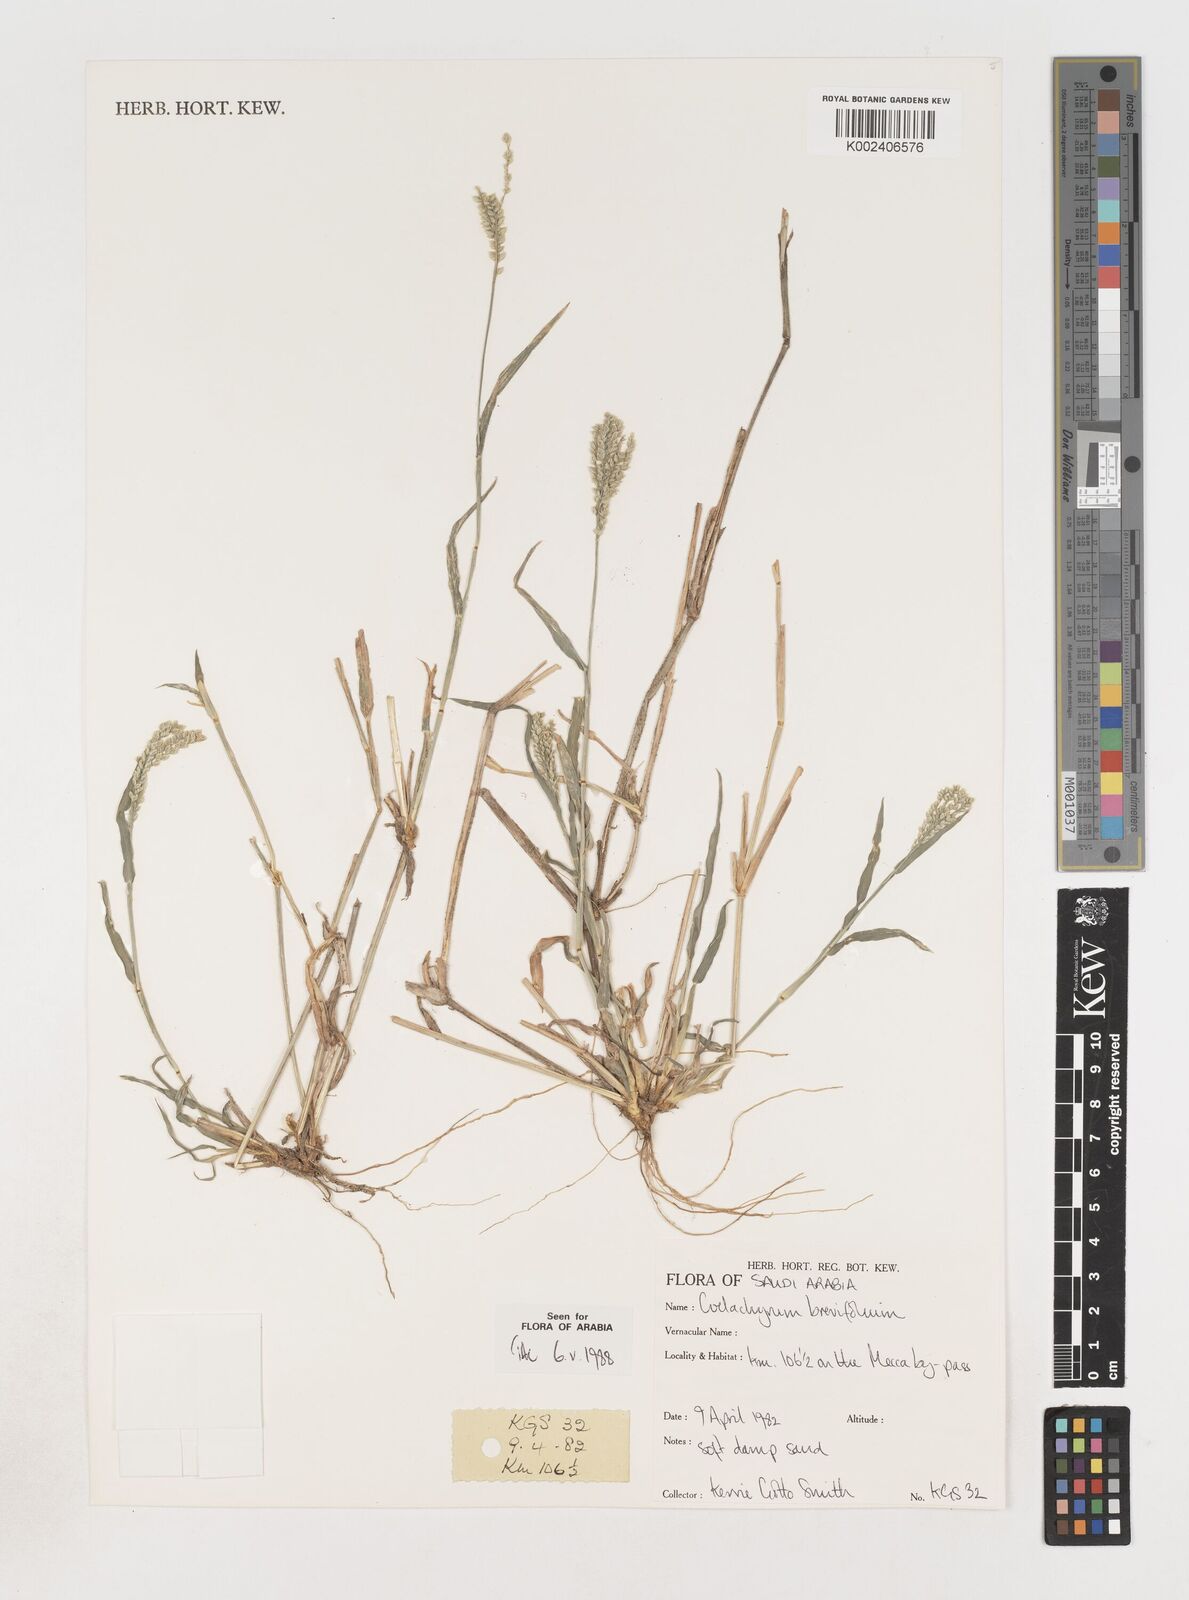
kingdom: Plantae
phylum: Tracheophyta
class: Liliopsida
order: Poales
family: Poaceae
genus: Coelachyrum
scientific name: Coelachyrum brevifolium
